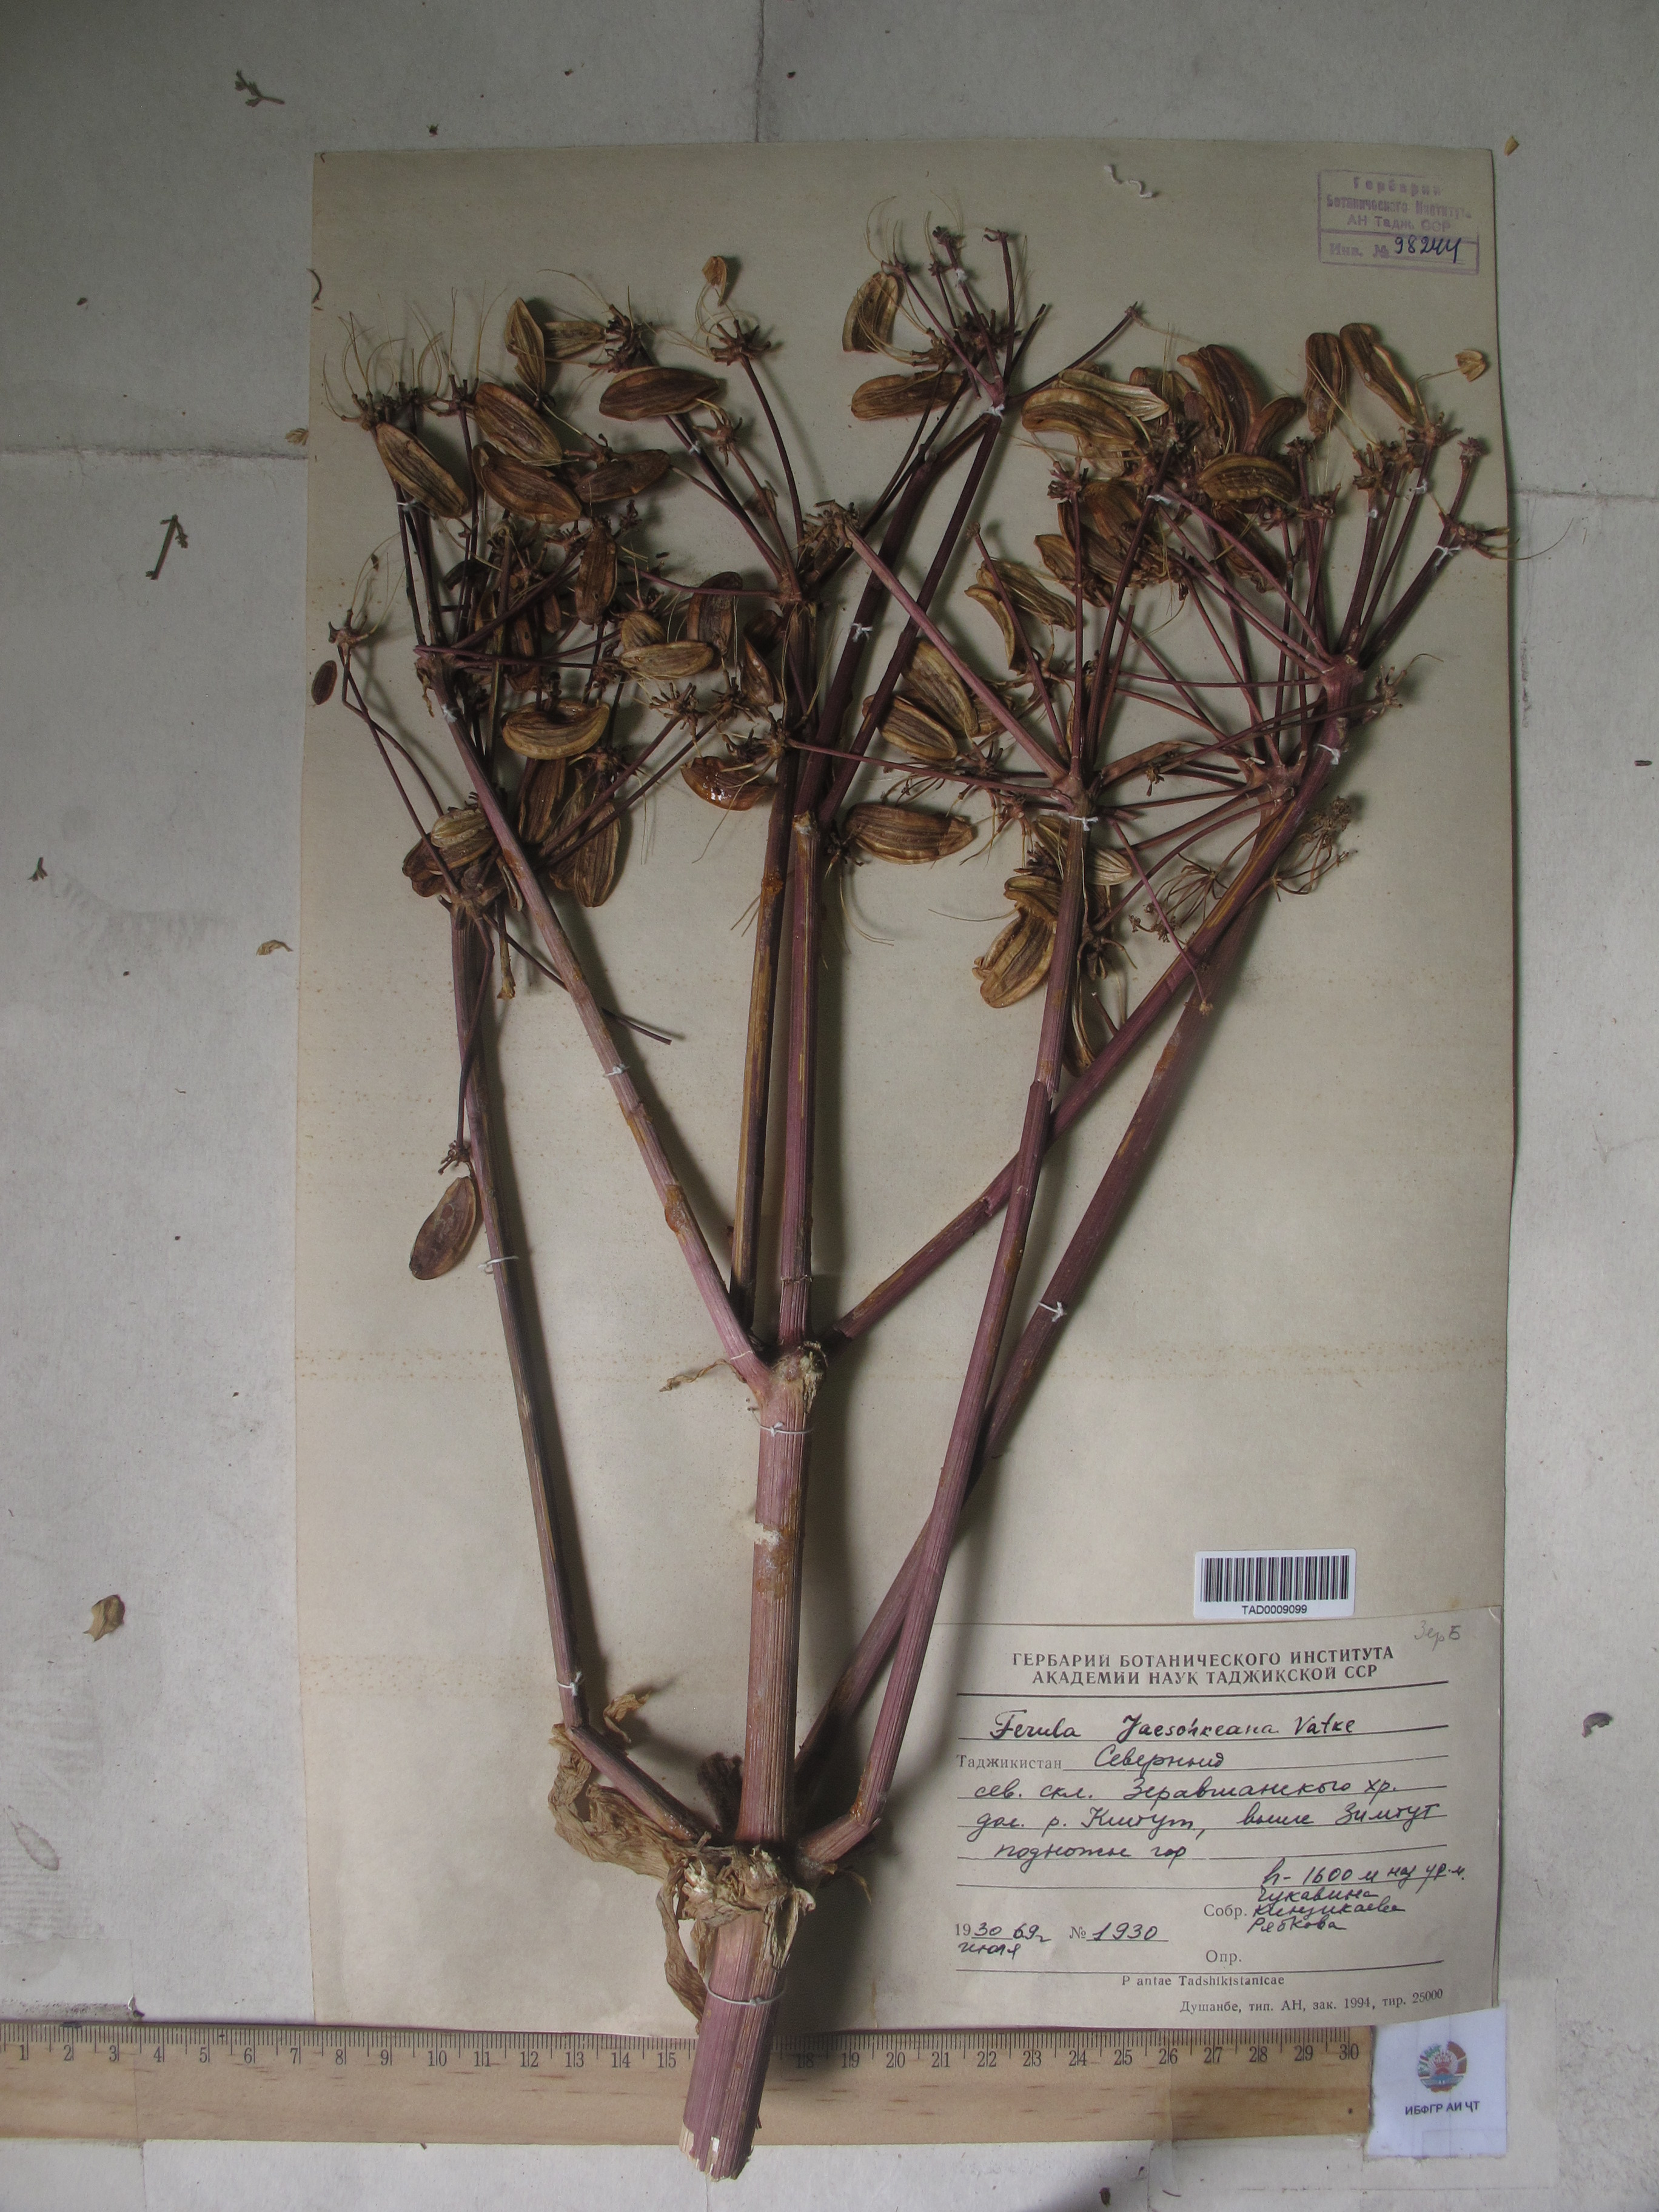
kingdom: Plantae
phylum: Tracheophyta
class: Magnoliopsida
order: Apiales
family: Apiaceae
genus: Ferula
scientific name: Ferula jaeschkeana
